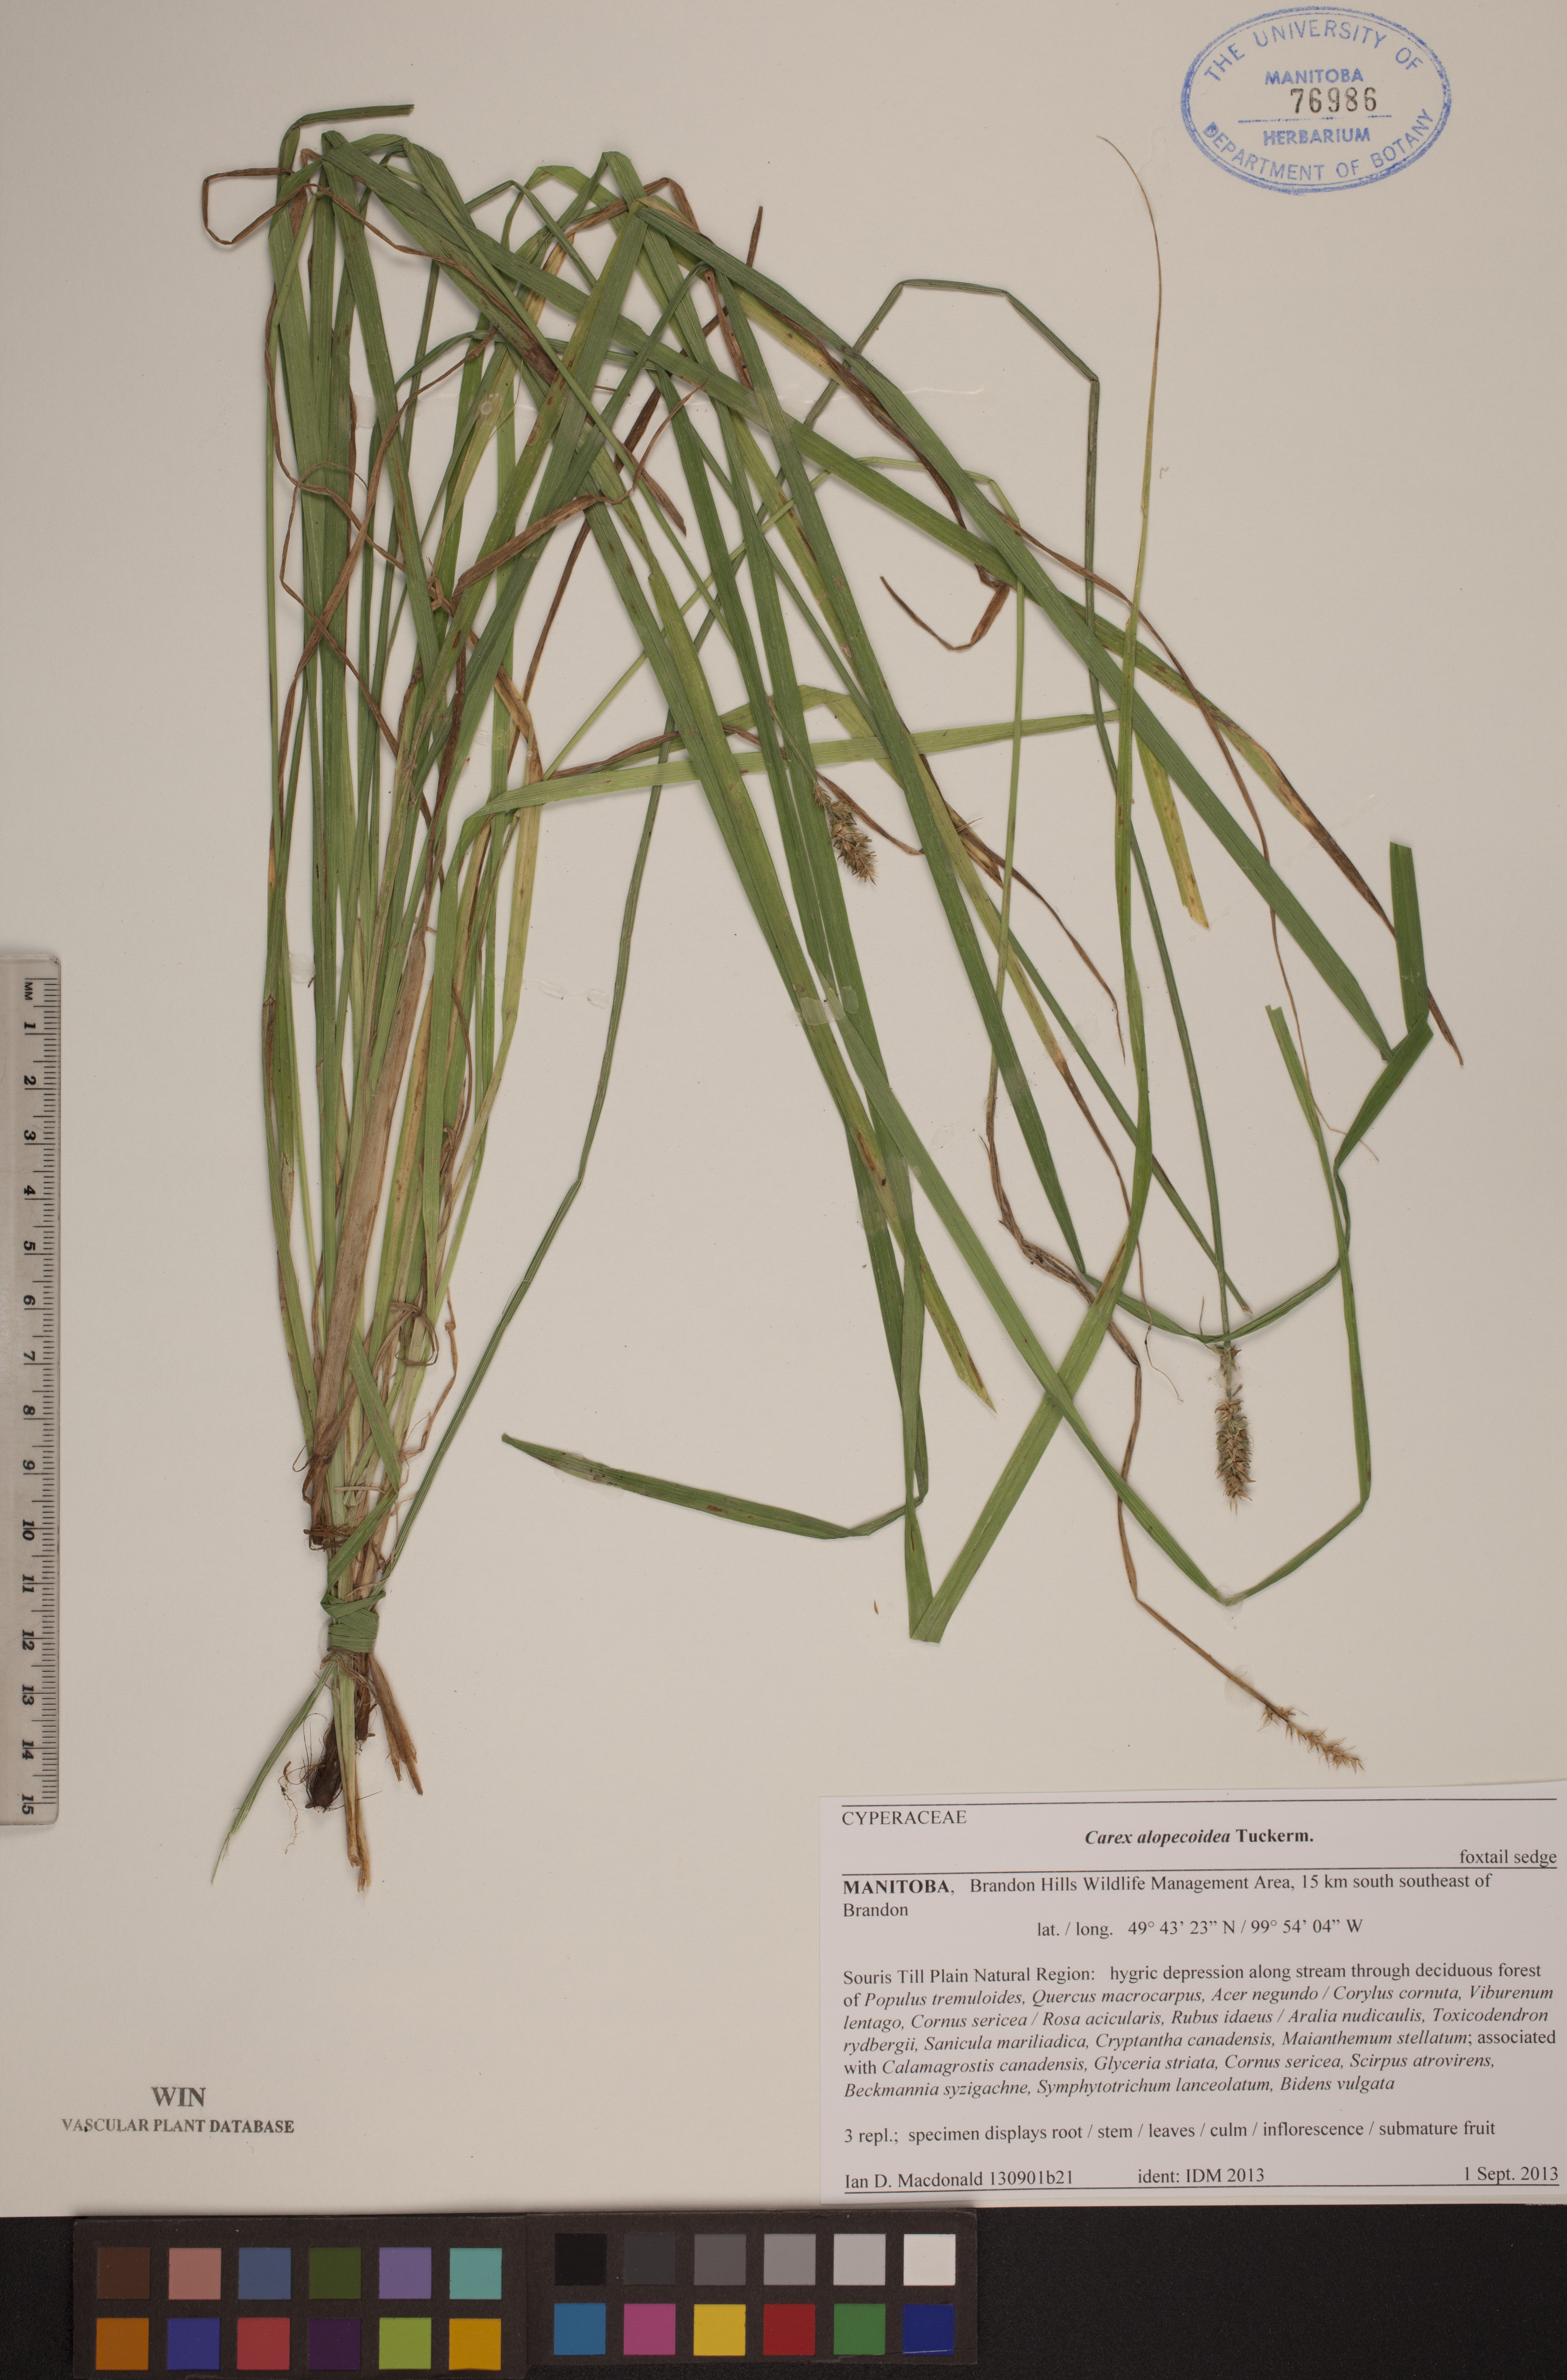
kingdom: Plantae
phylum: Tracheophyta
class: Liliopsida
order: Poales
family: Cyperaceae
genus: Carex
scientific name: Carex alopecoidea
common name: Brown-headed fox sedge
